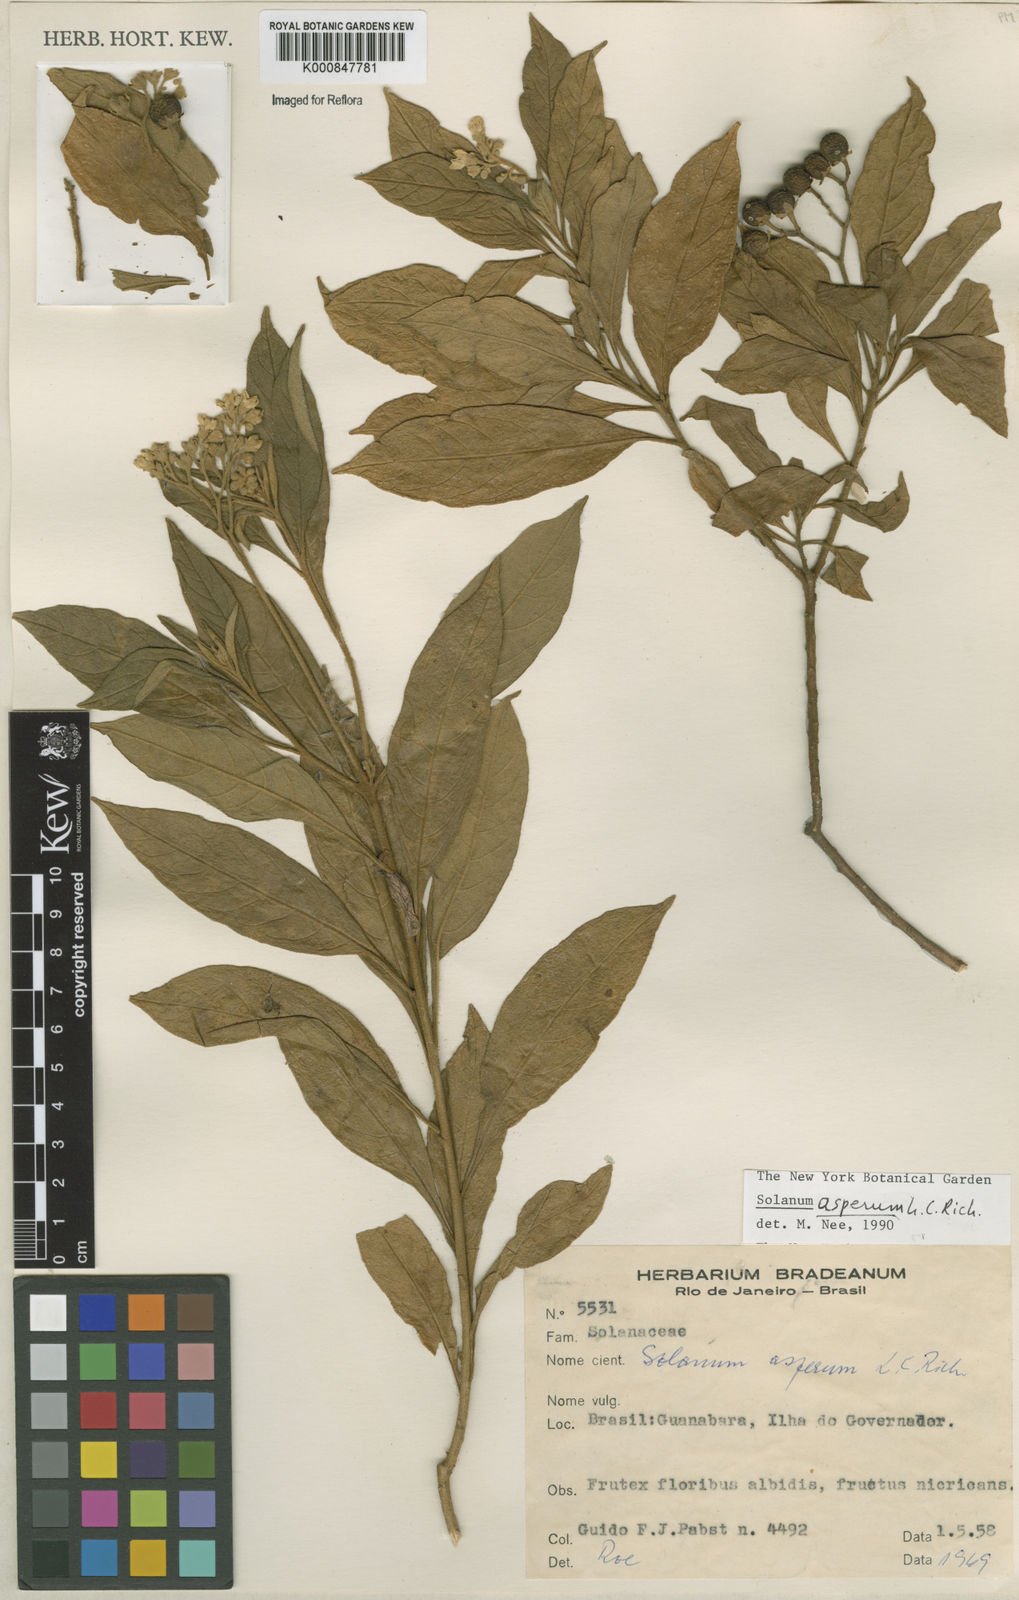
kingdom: Plantae
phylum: Tracheophyta
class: Magnoliopsida
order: Solanales
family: Solanaceae
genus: Solanum
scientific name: Solanum asperum
